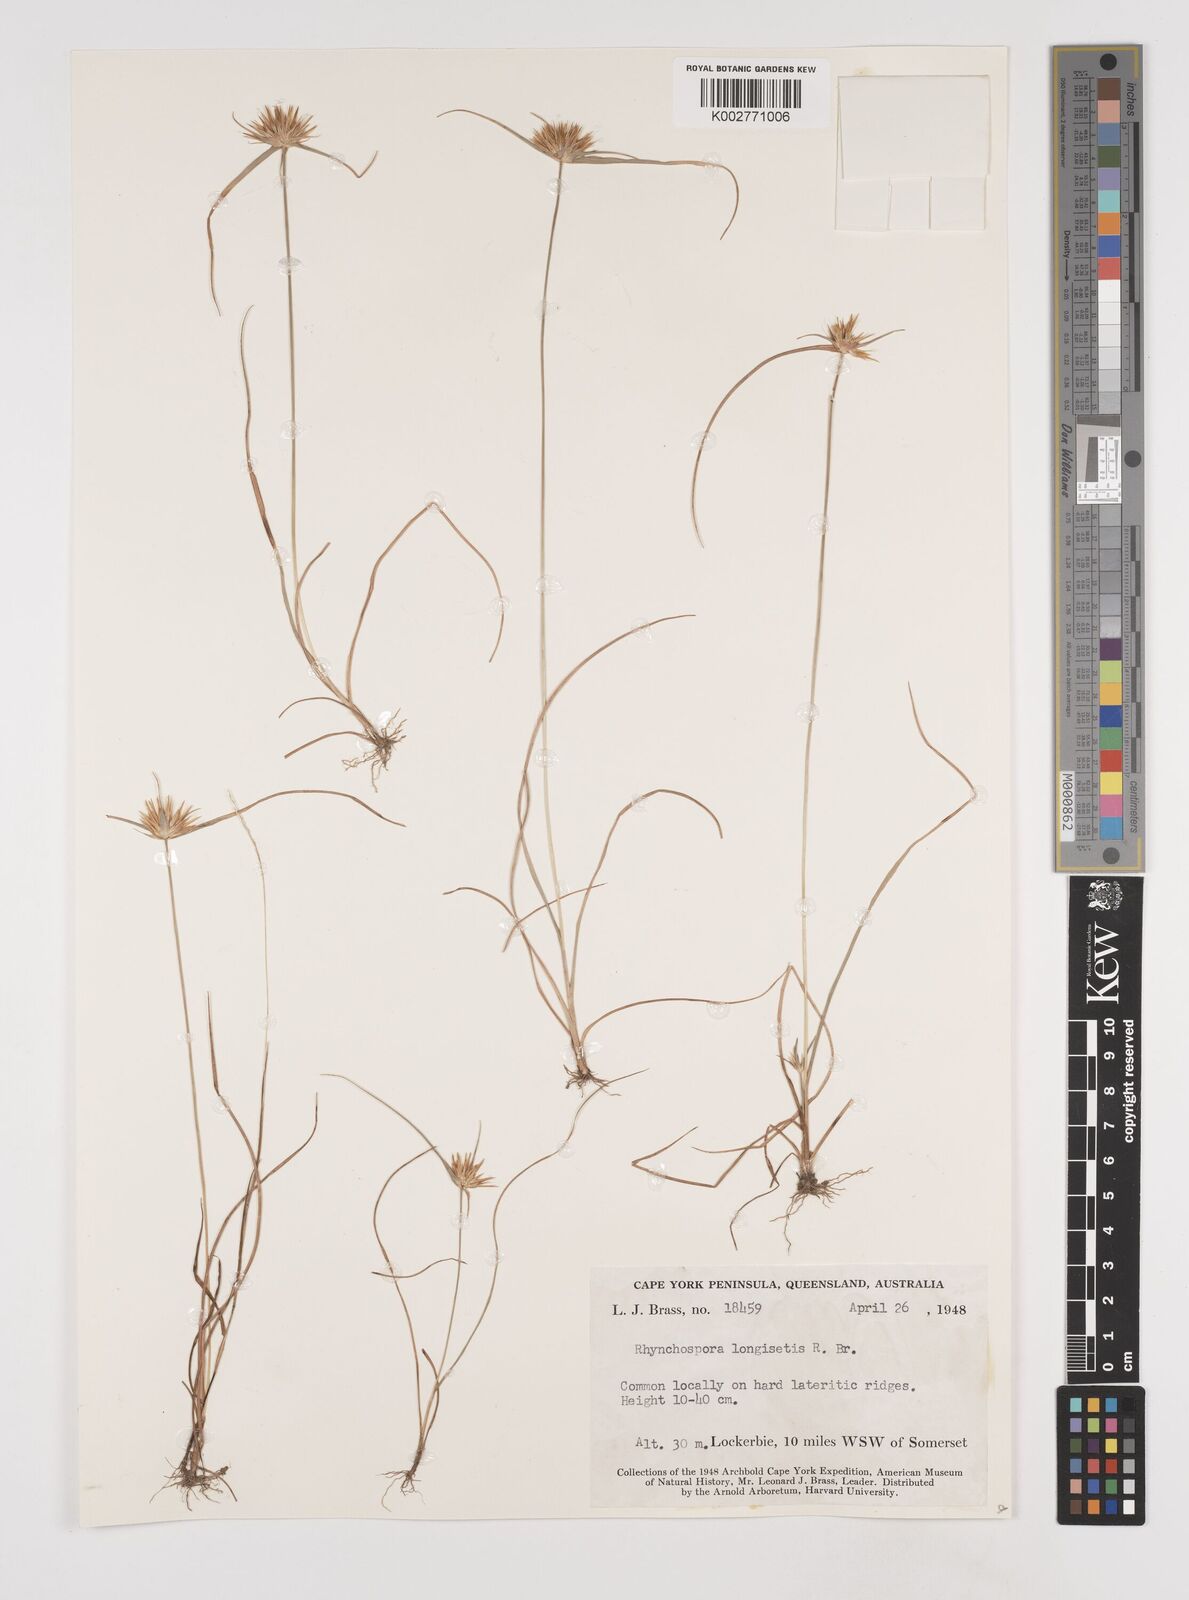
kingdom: Plantae
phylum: Tracheophyta
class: Liliopsida
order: Poales
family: Cyperaceae
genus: Rhynchospora
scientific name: Rhynchospora longisetis
